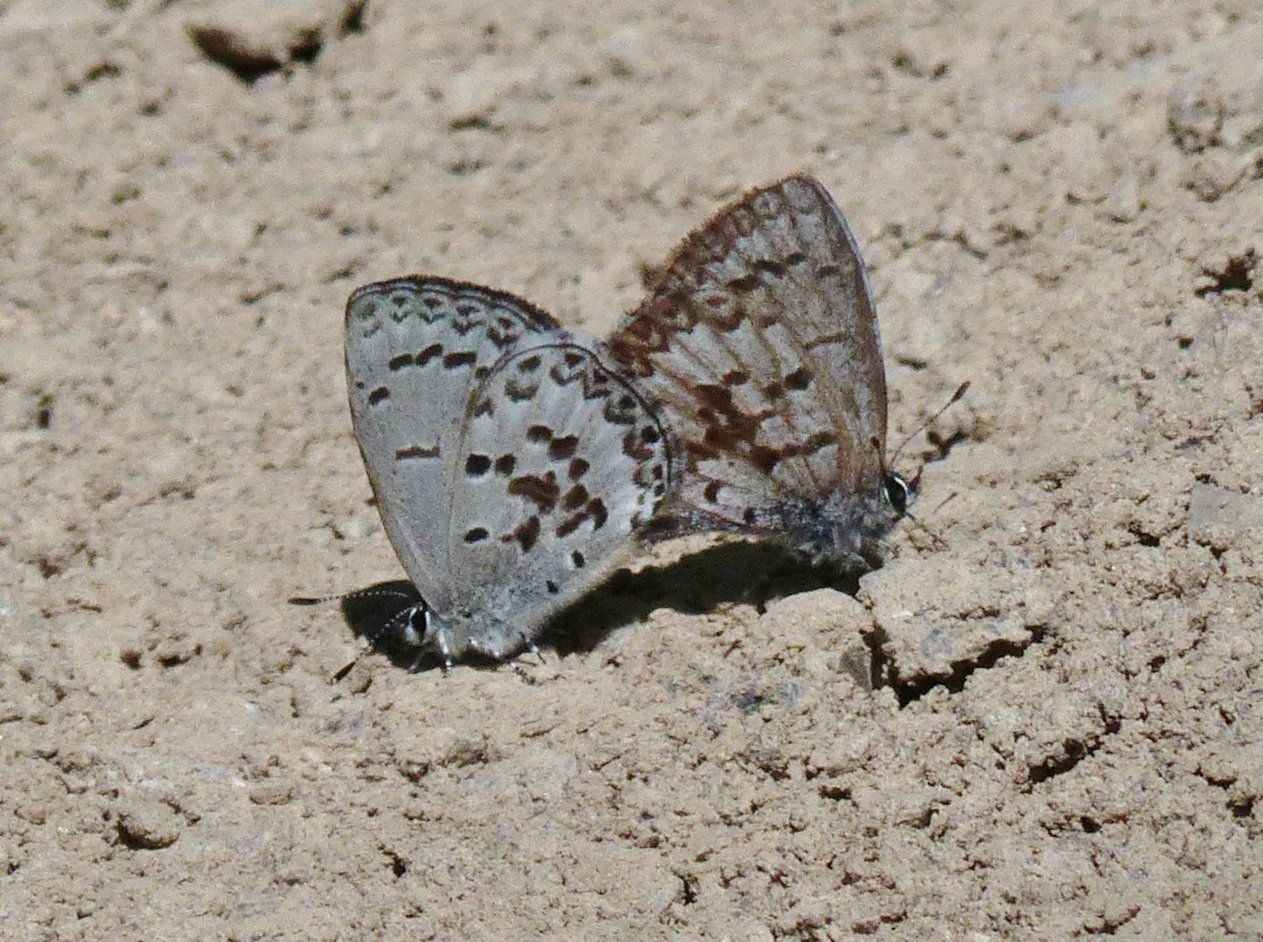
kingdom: Animalia
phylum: Arthropoda
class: Insecta
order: Lepidoptera
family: Lycaenidae
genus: Celastrina
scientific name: Celastrina lucia
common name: Northern Spring Azure
